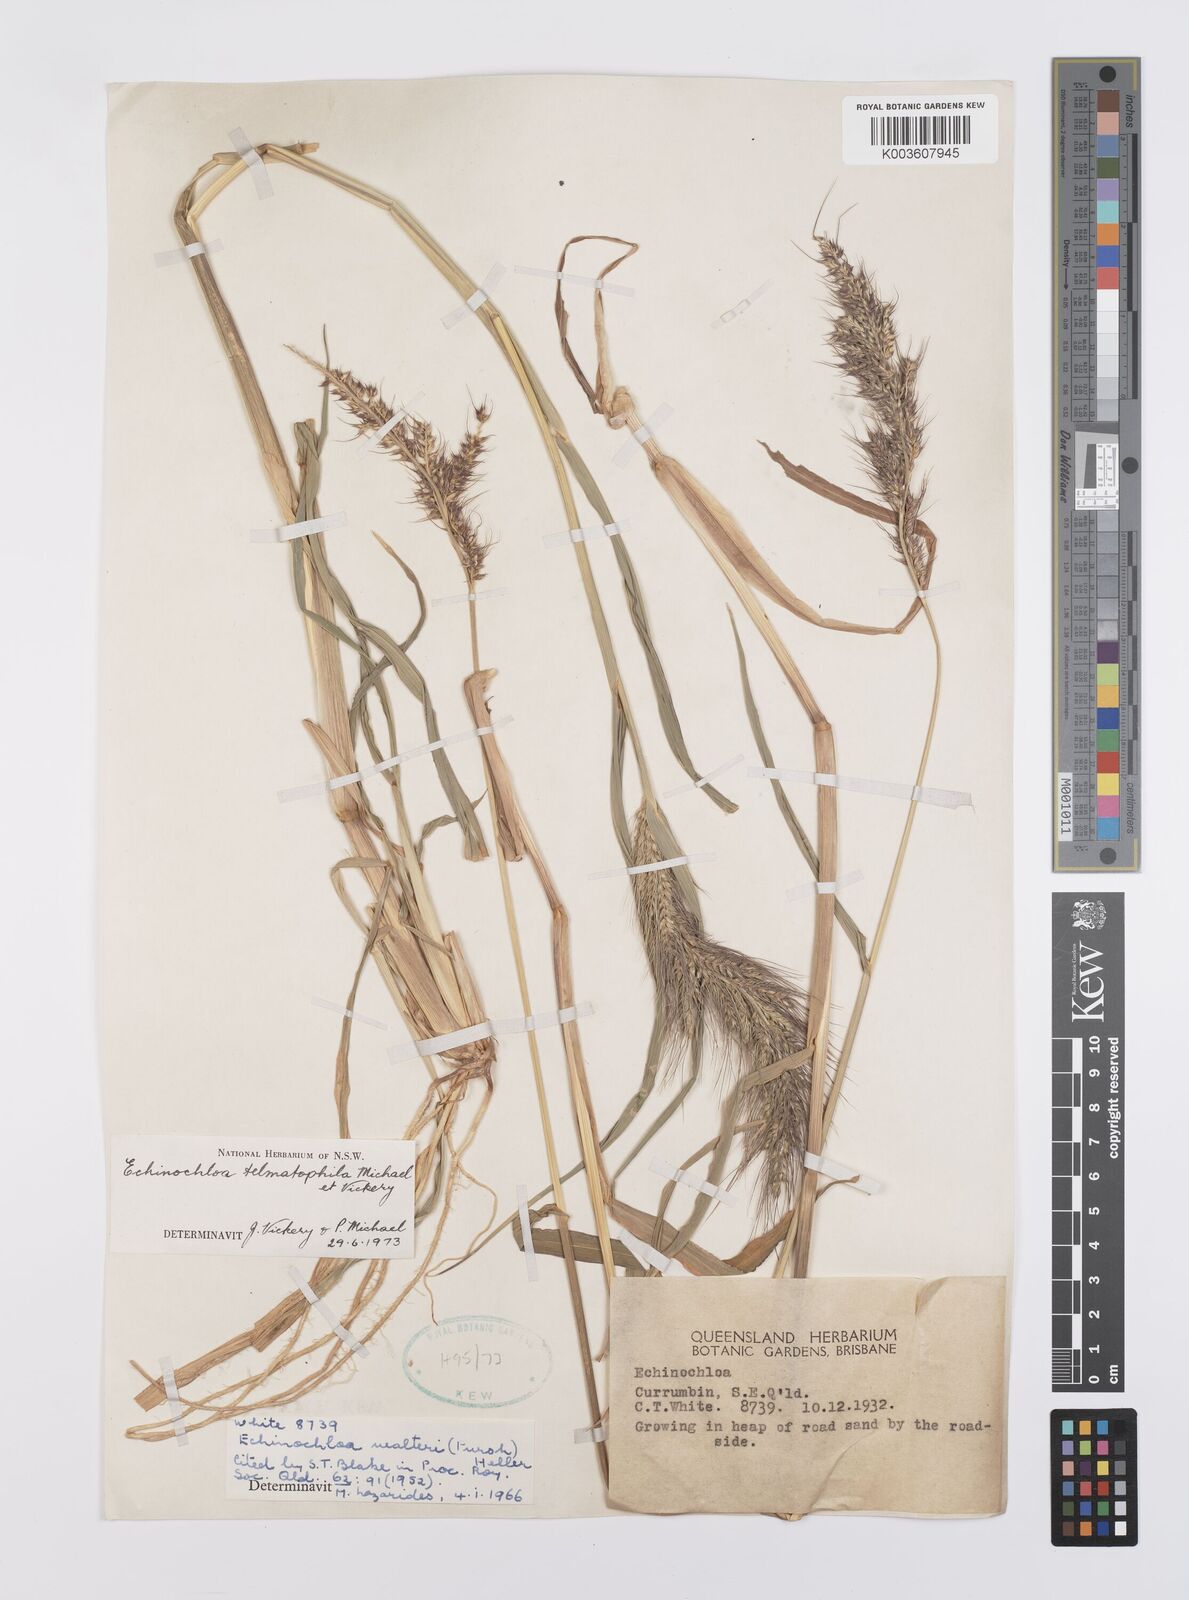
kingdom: Plantae
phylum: Tracheophyta
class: Liliopsida
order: Poales
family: Poaceae
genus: Echinochloa
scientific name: Echinochloa crus-galli
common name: Cockspur
